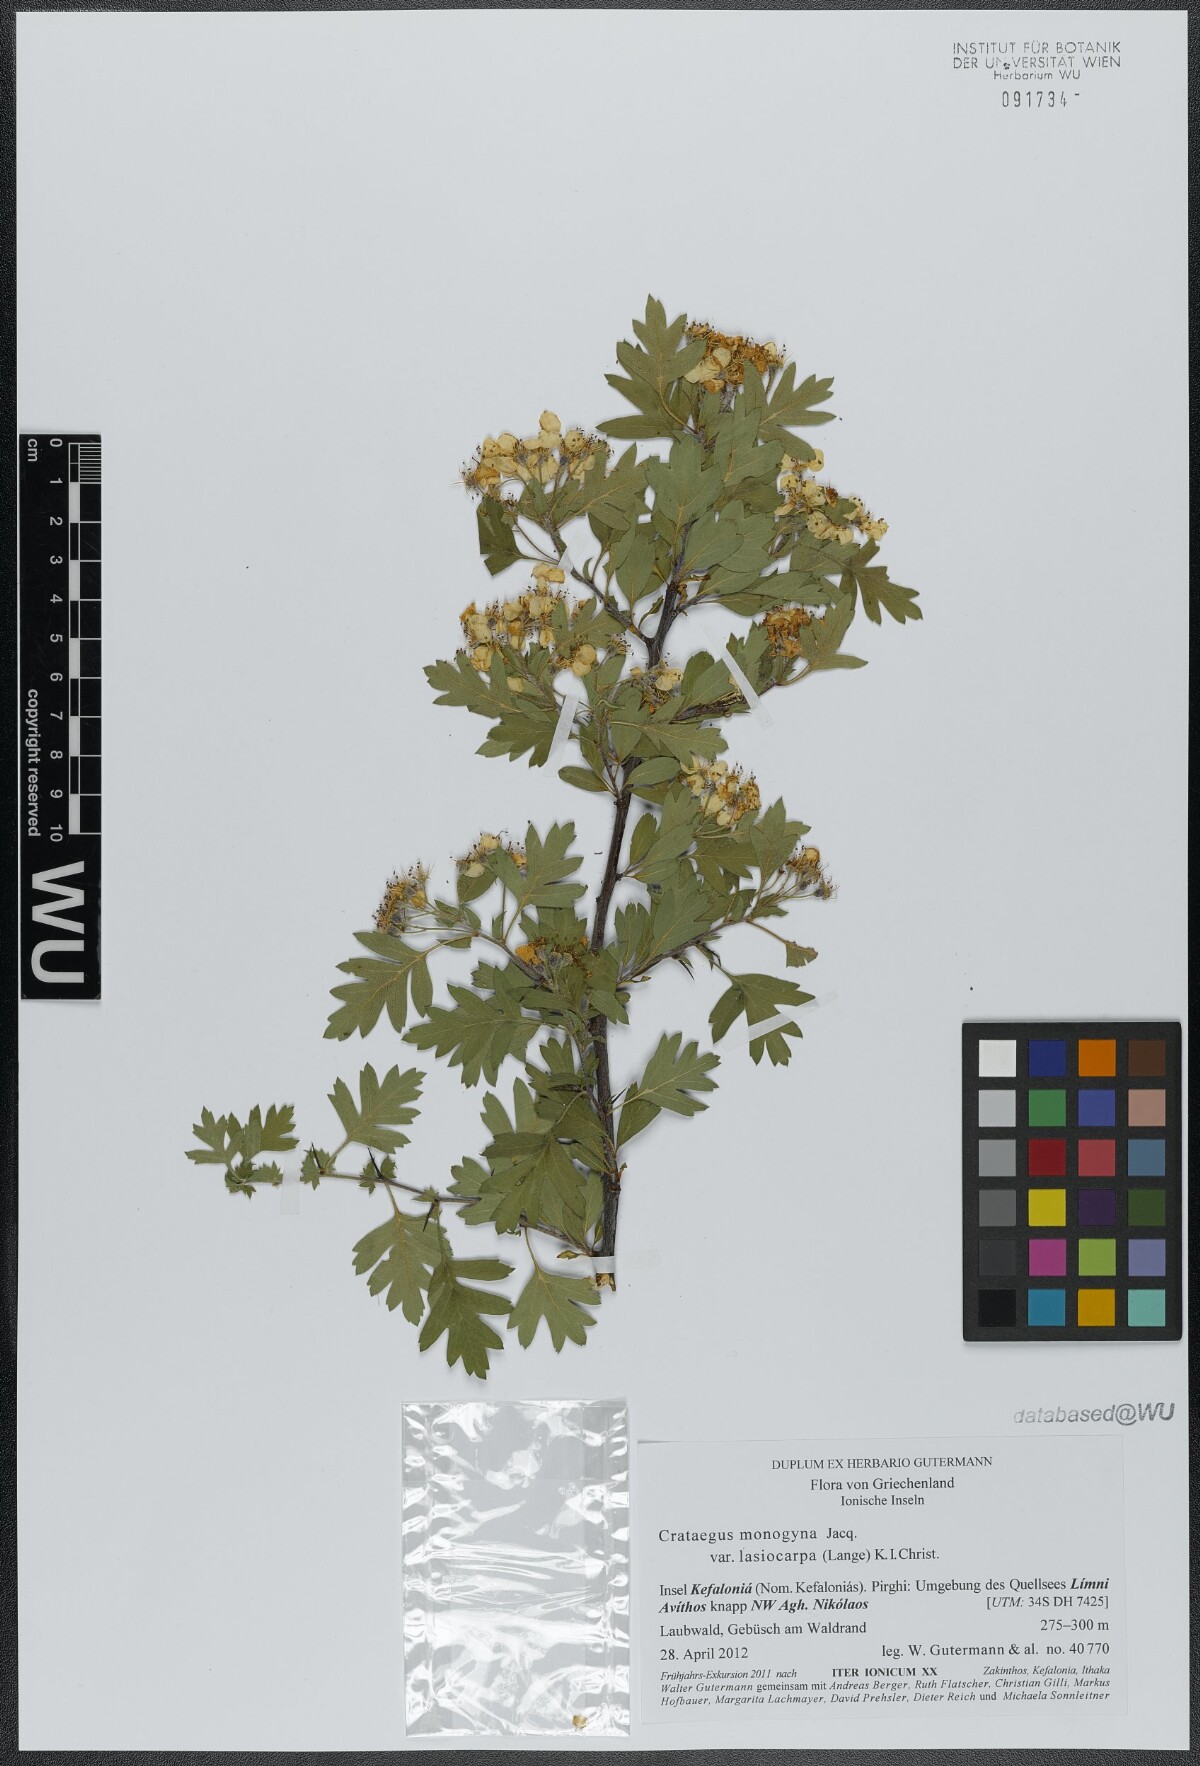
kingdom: Plantae
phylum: Tracheophyta
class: Magnoliopsida
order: Rosales
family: Rosaceae
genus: Crataegus
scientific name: Crataegus monogyna
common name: Hawthorn
